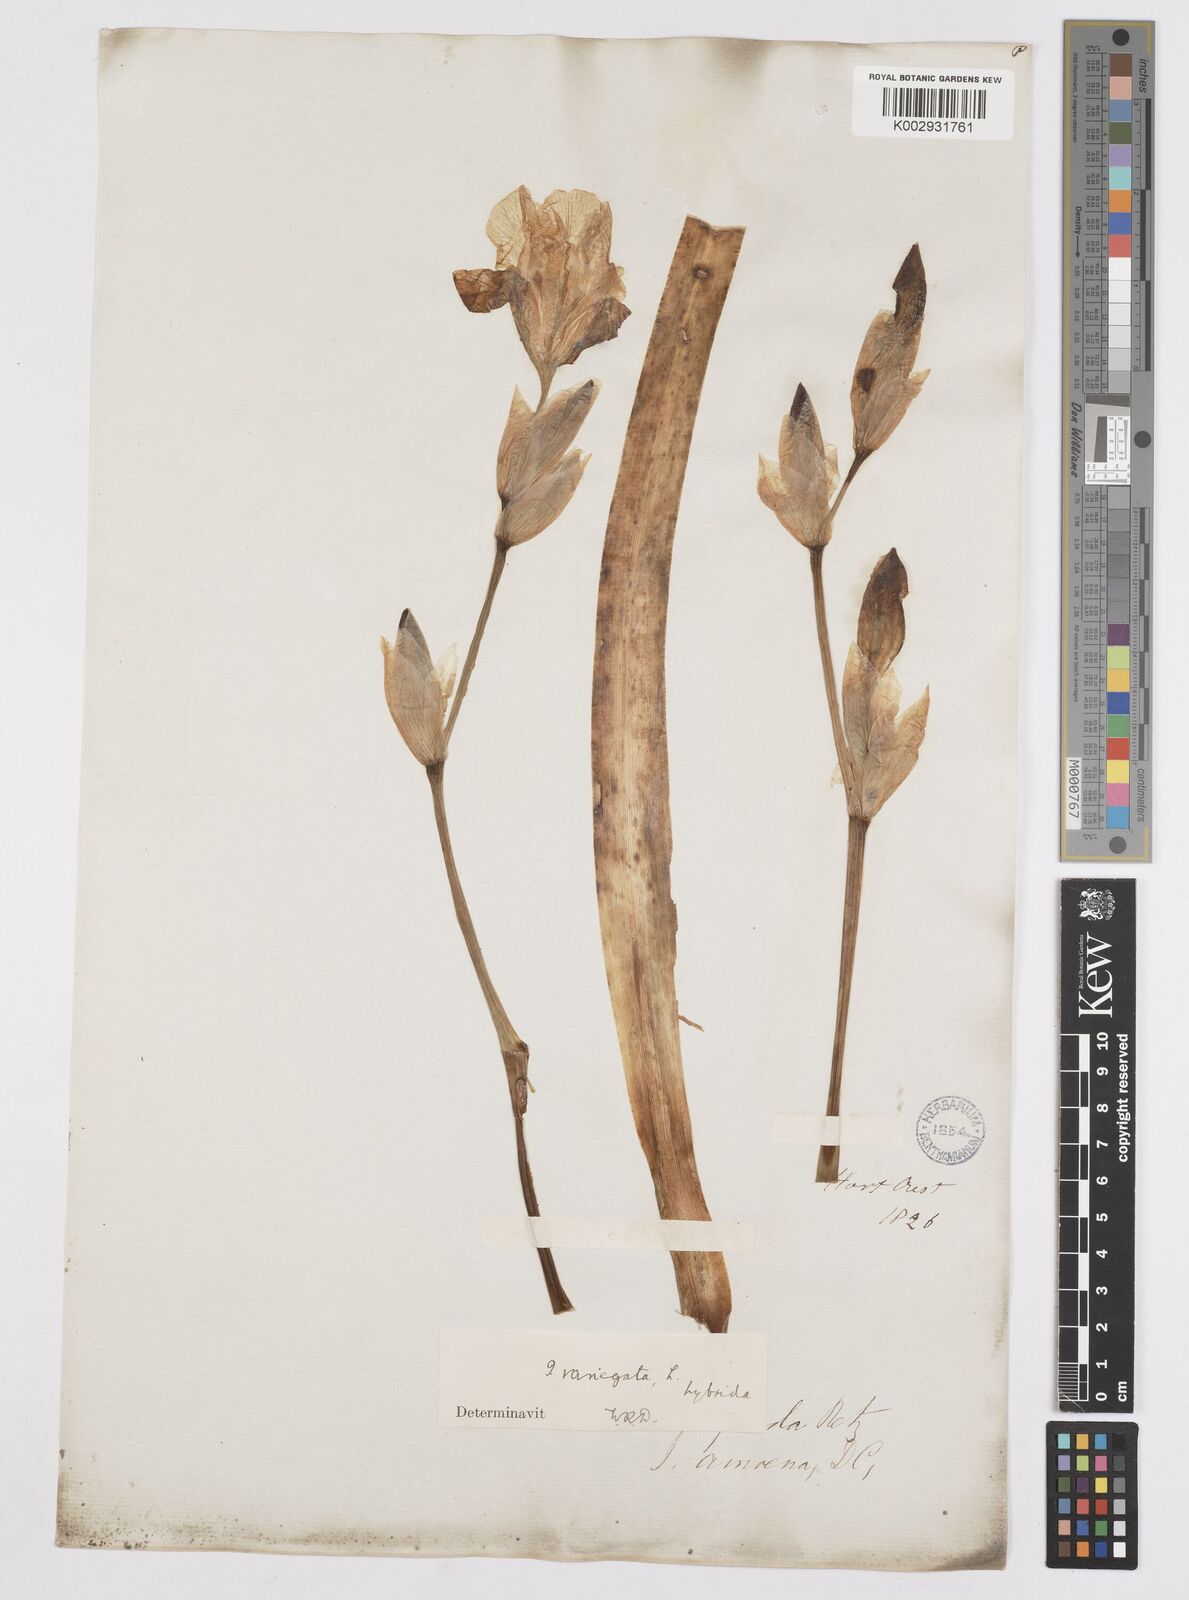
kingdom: Plantae
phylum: Tracheophyta
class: Liliopsida
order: Asparagales
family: Iridaceae
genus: Iris
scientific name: Iris germanica
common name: German iris
